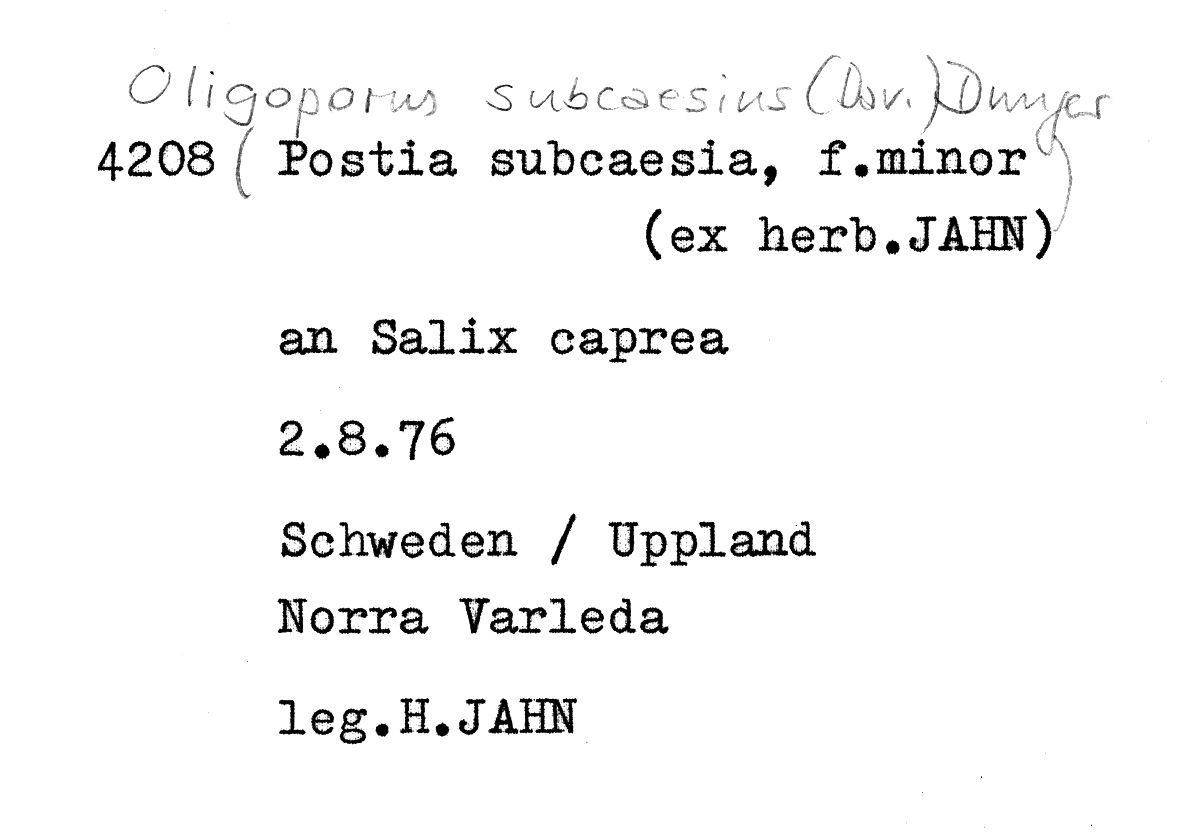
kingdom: Plantae
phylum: Tracheophyta
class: Magnoliopsida
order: Malpighiales
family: Salicaceae
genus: Salix
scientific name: Salix caprea
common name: Goat willow
